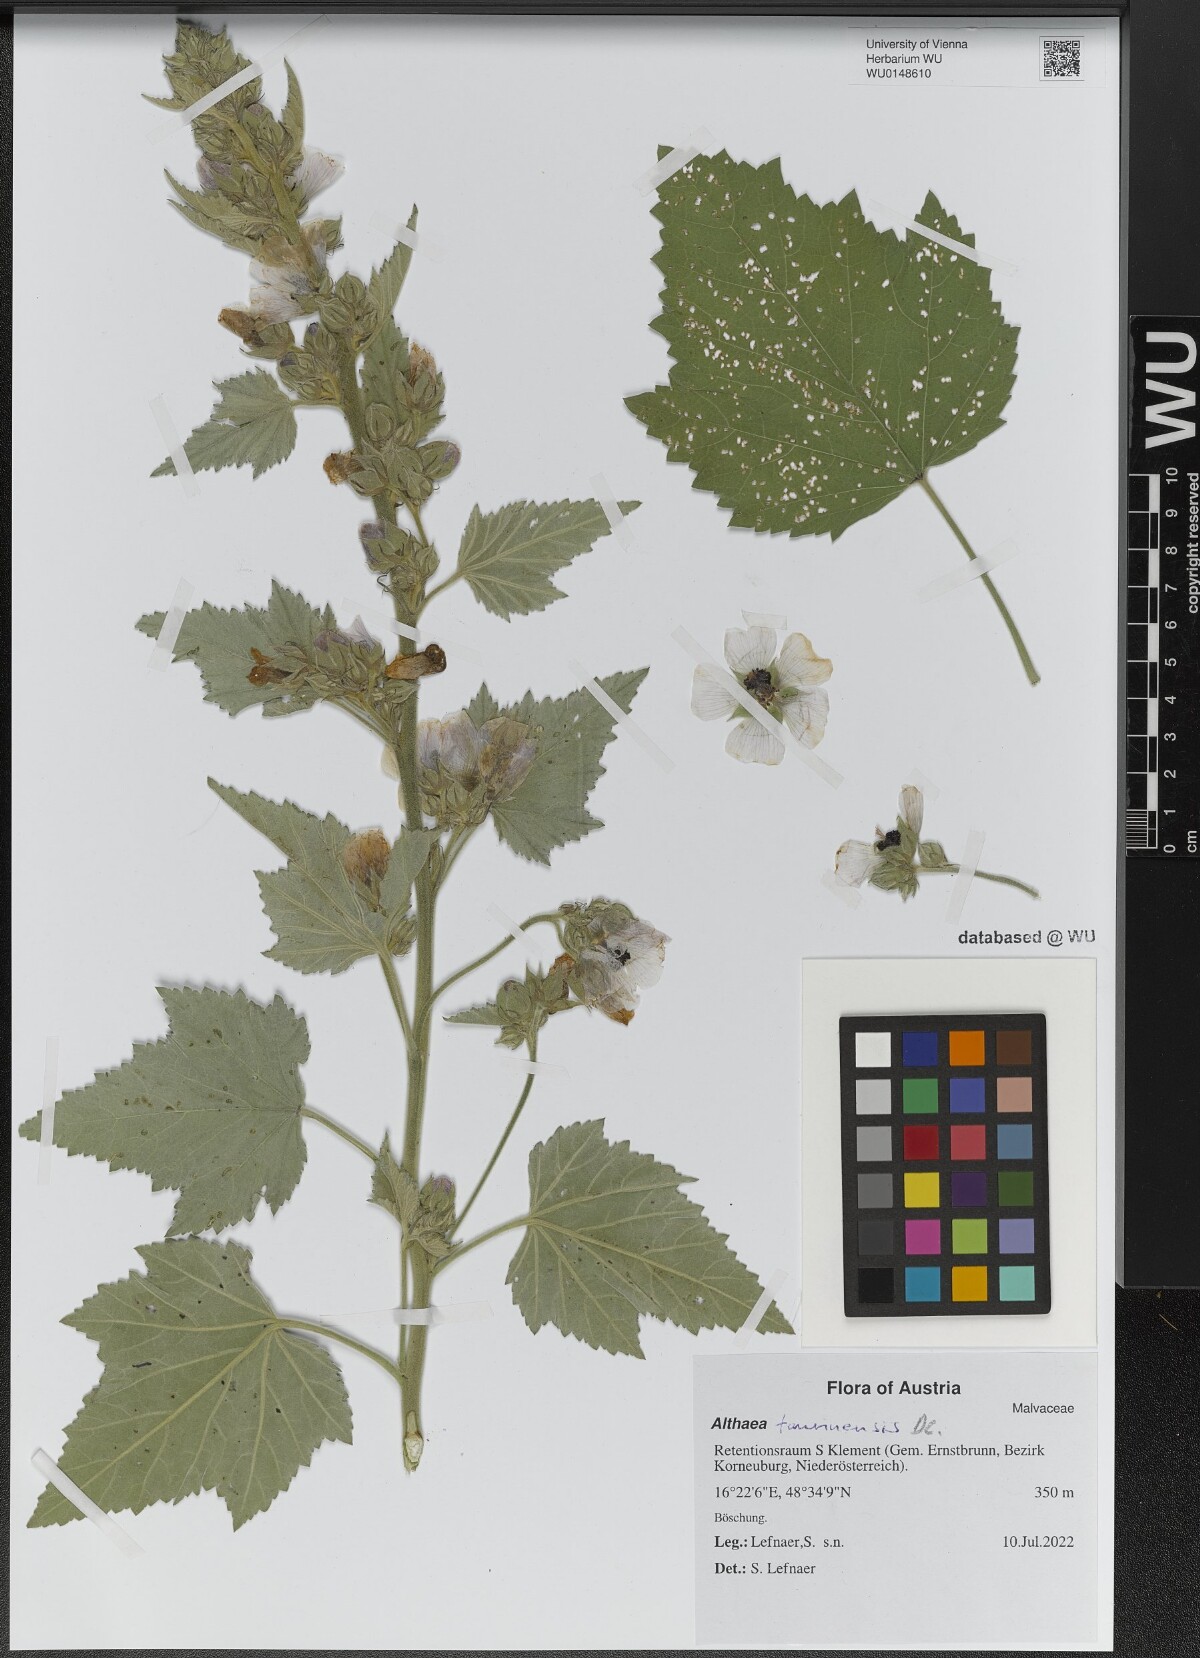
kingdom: Plantae
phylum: Tracheophyta
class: Magnoliopsida
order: Malvales
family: Malvaceae
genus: Althaea
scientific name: Althaea taurinensis
